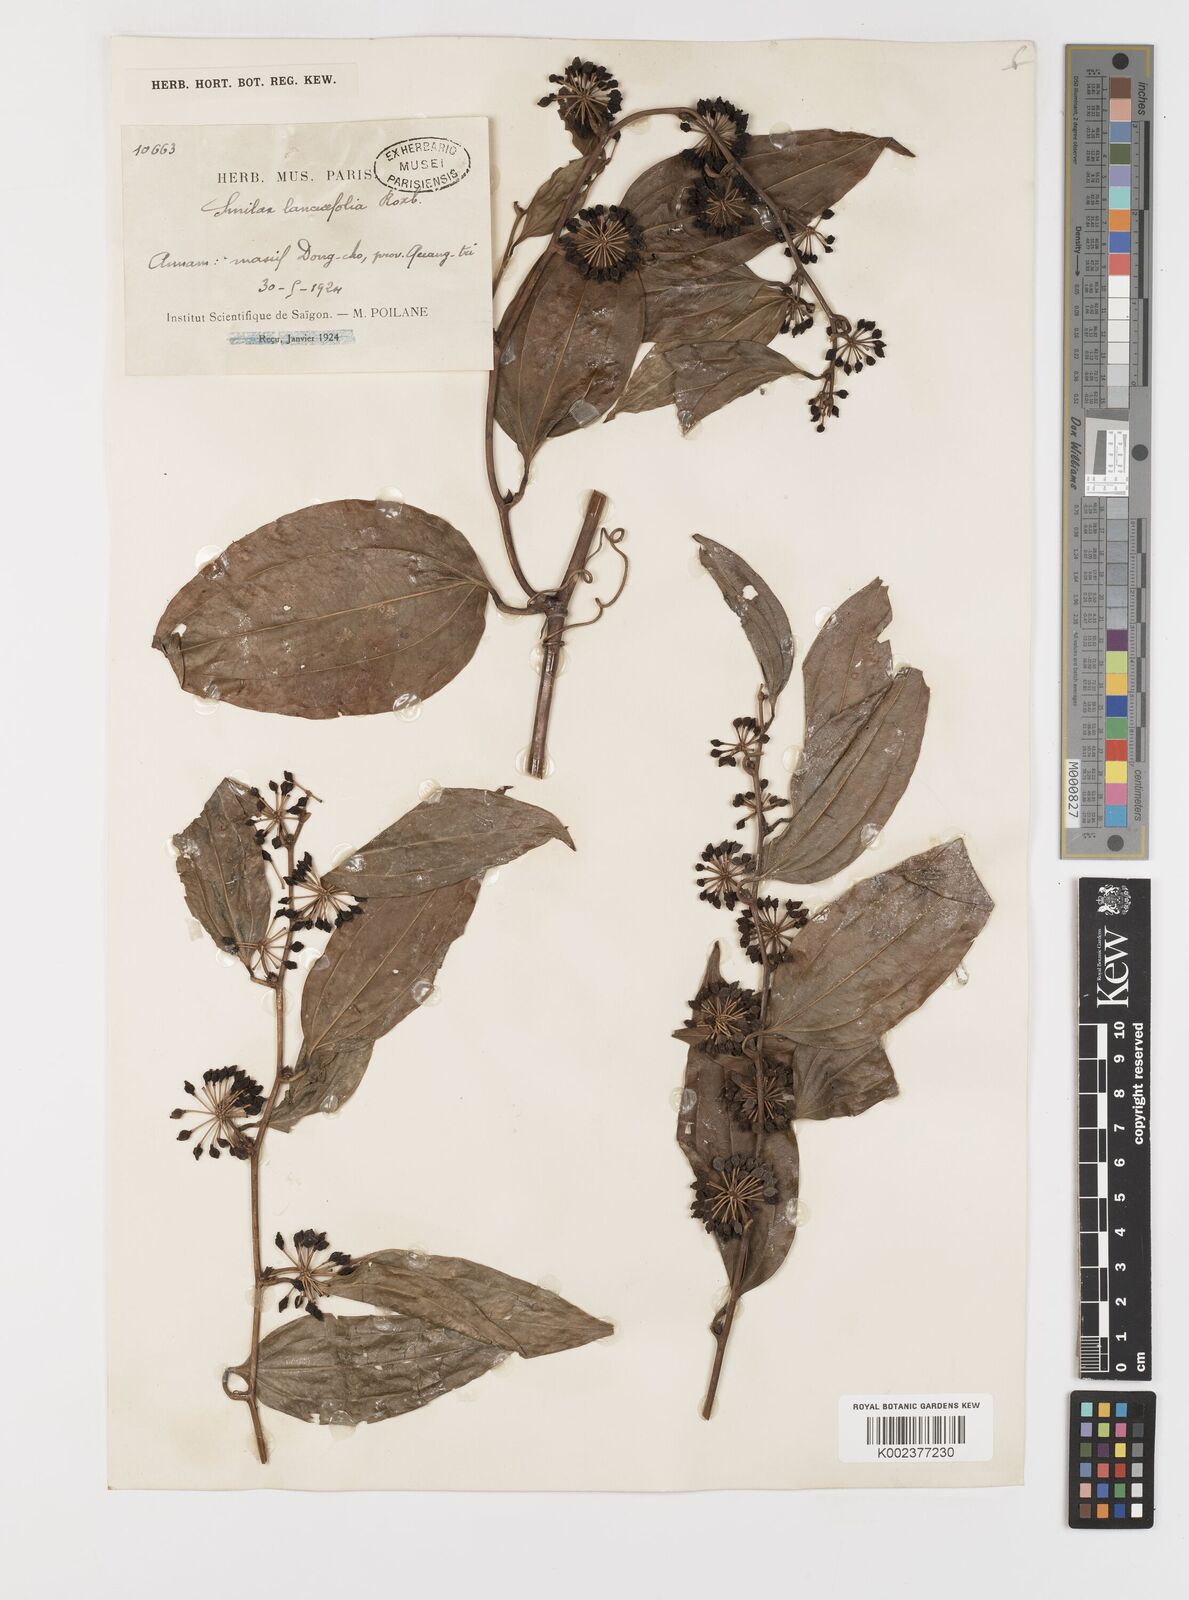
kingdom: Plantae
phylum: Tracheophyta
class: Liliopsida
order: Liliales
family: Smilacaceae
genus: Smilax
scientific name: Smilax lanceifolia
